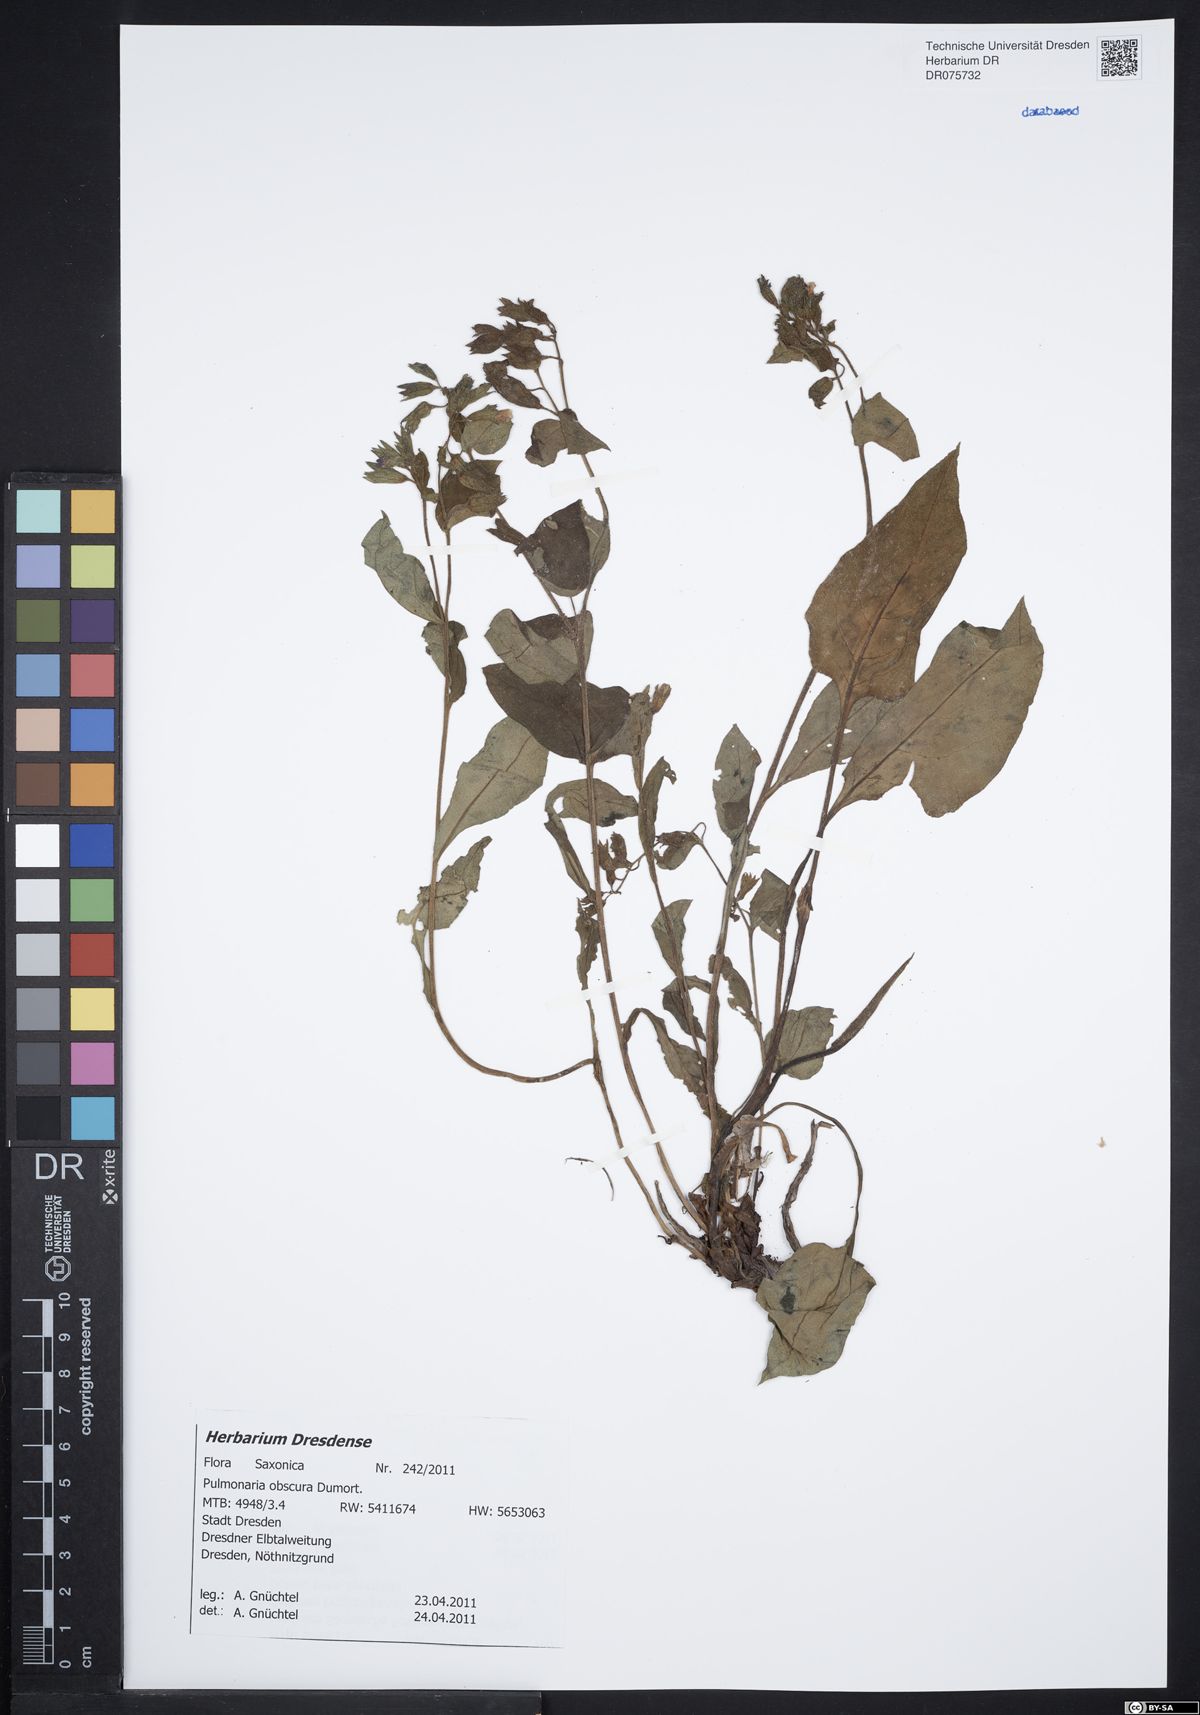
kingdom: Plantae
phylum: Tracheophyta
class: Magnoliopsida
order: Boraginales
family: Boraginaceae
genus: Pulmonaria
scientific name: Pulmonaria obscura
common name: Suffolk lungwort
